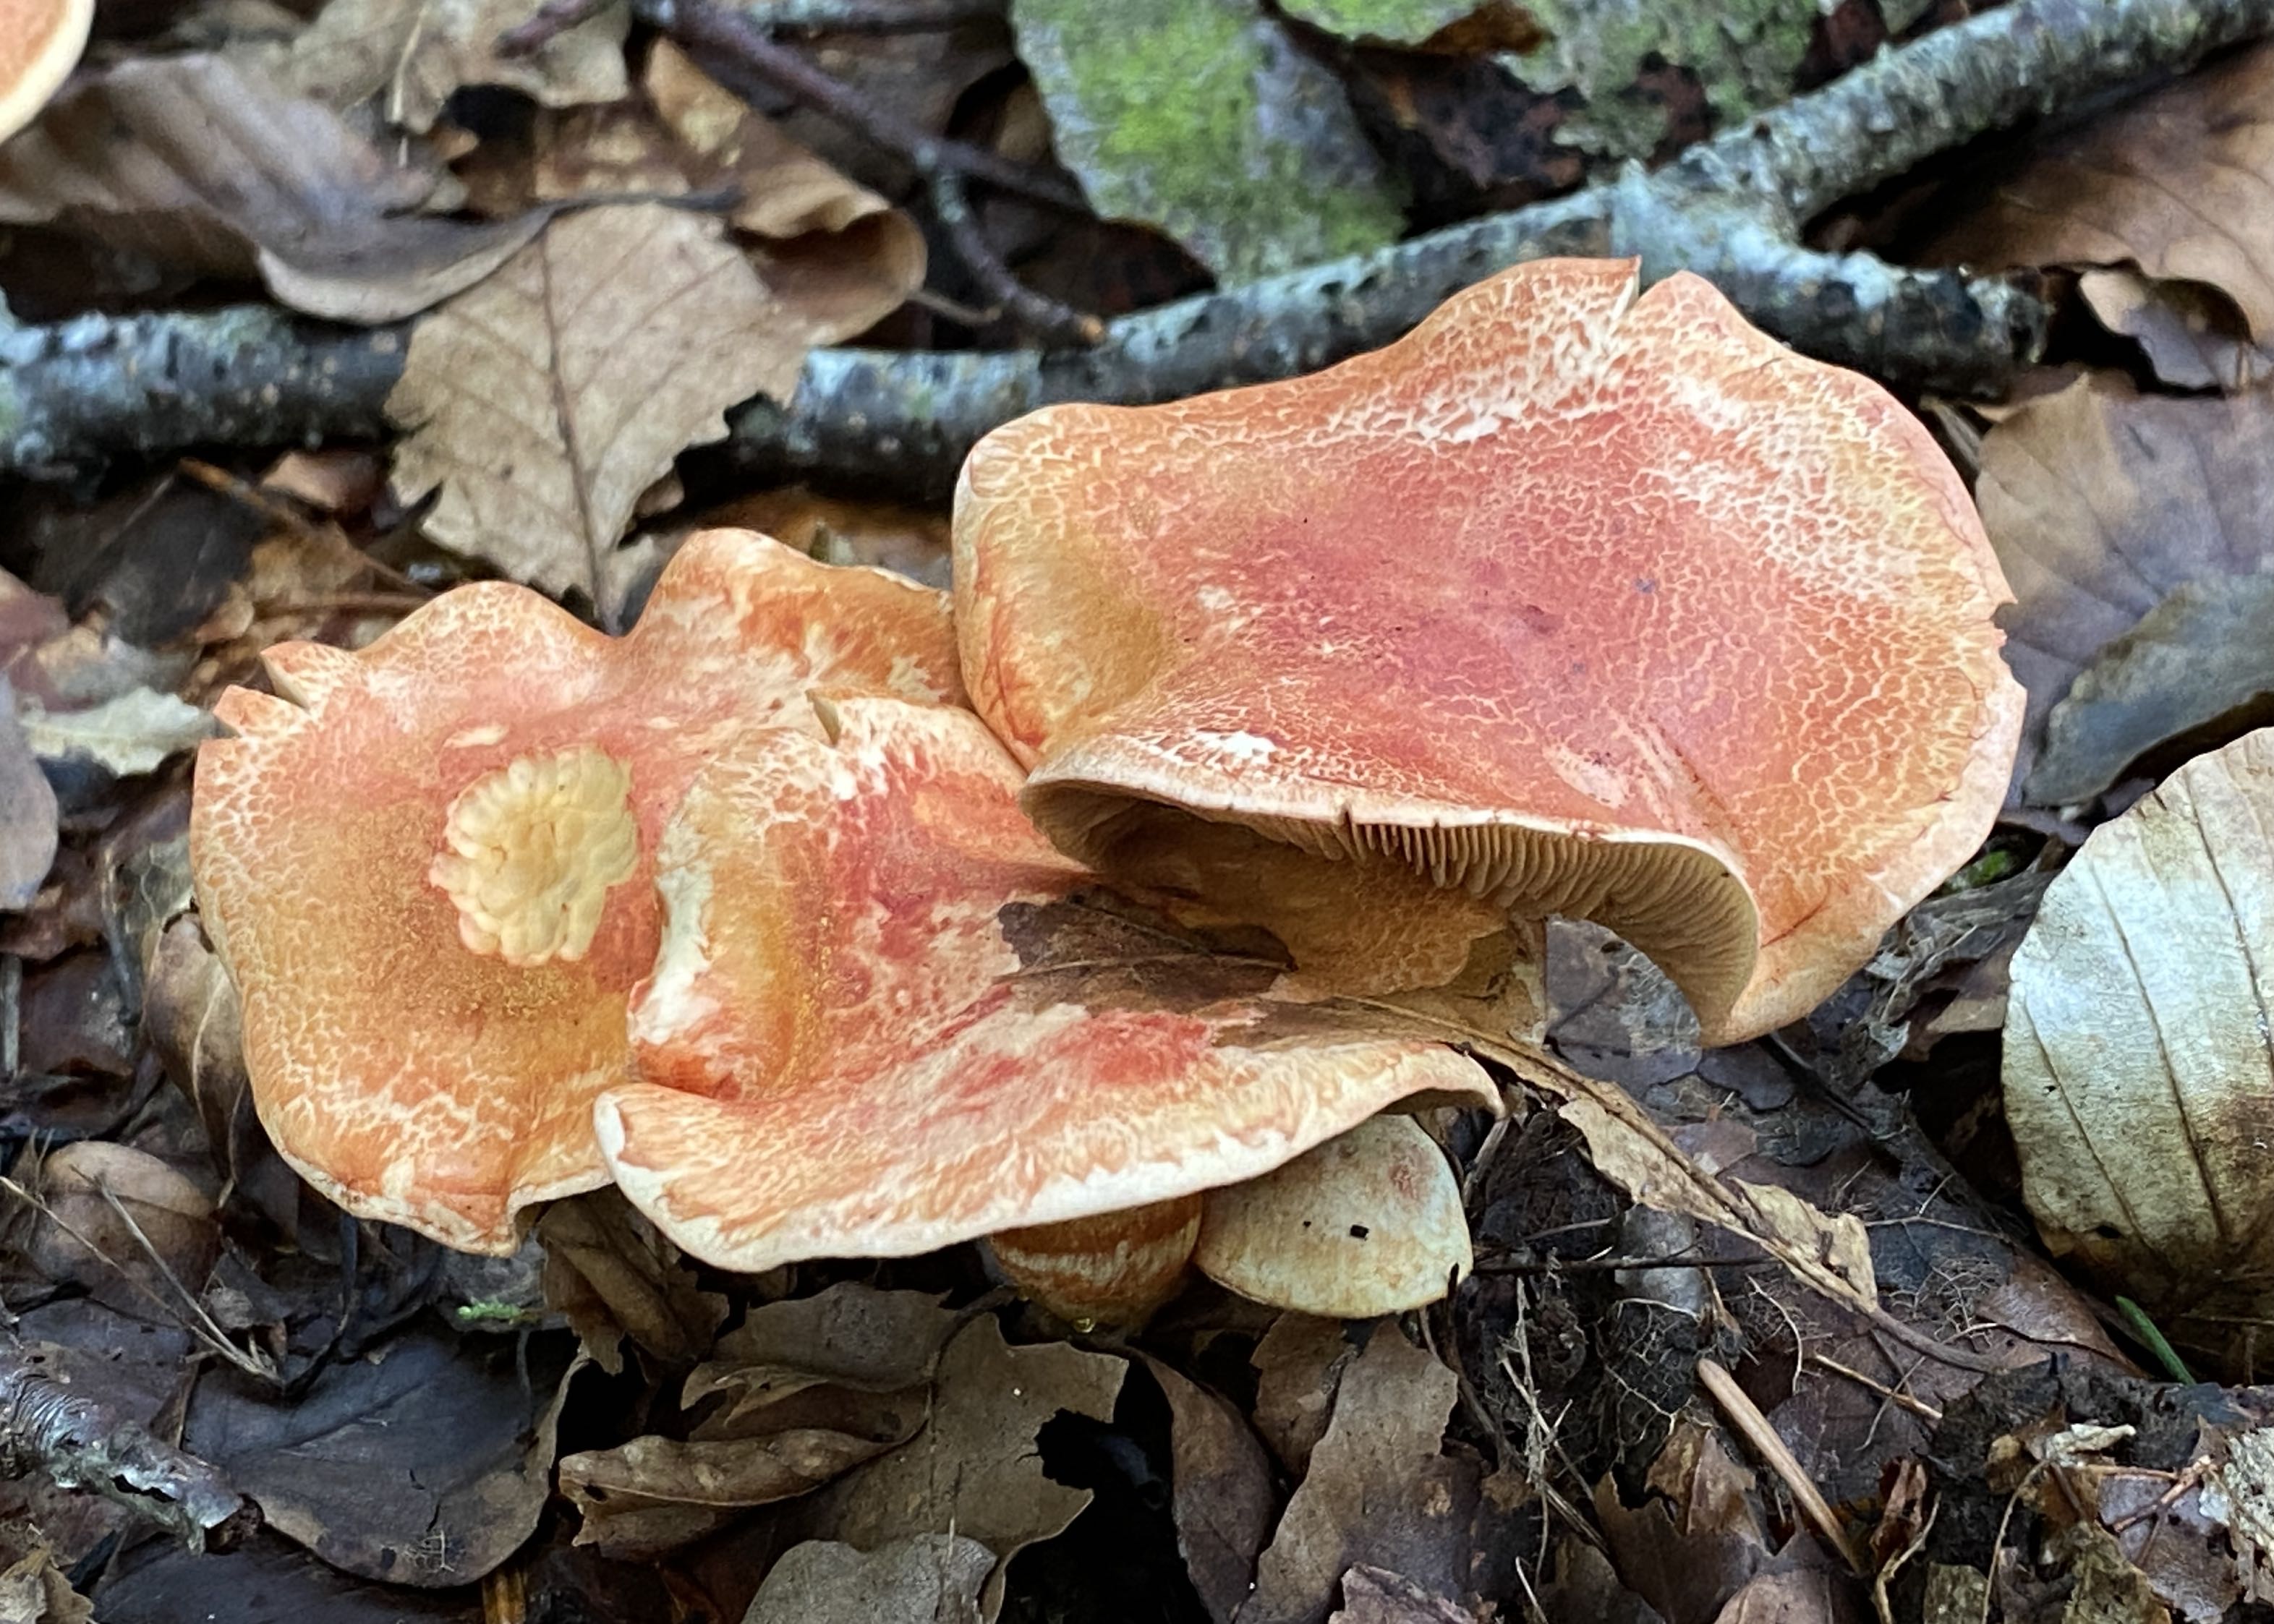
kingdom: Fungi
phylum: Basidiomycota
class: Agaricomycetes
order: Agaricales
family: Cortinariaceae
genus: Cortinarius
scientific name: Cortinarius bolaris
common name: cinnoberskællet slørhat
